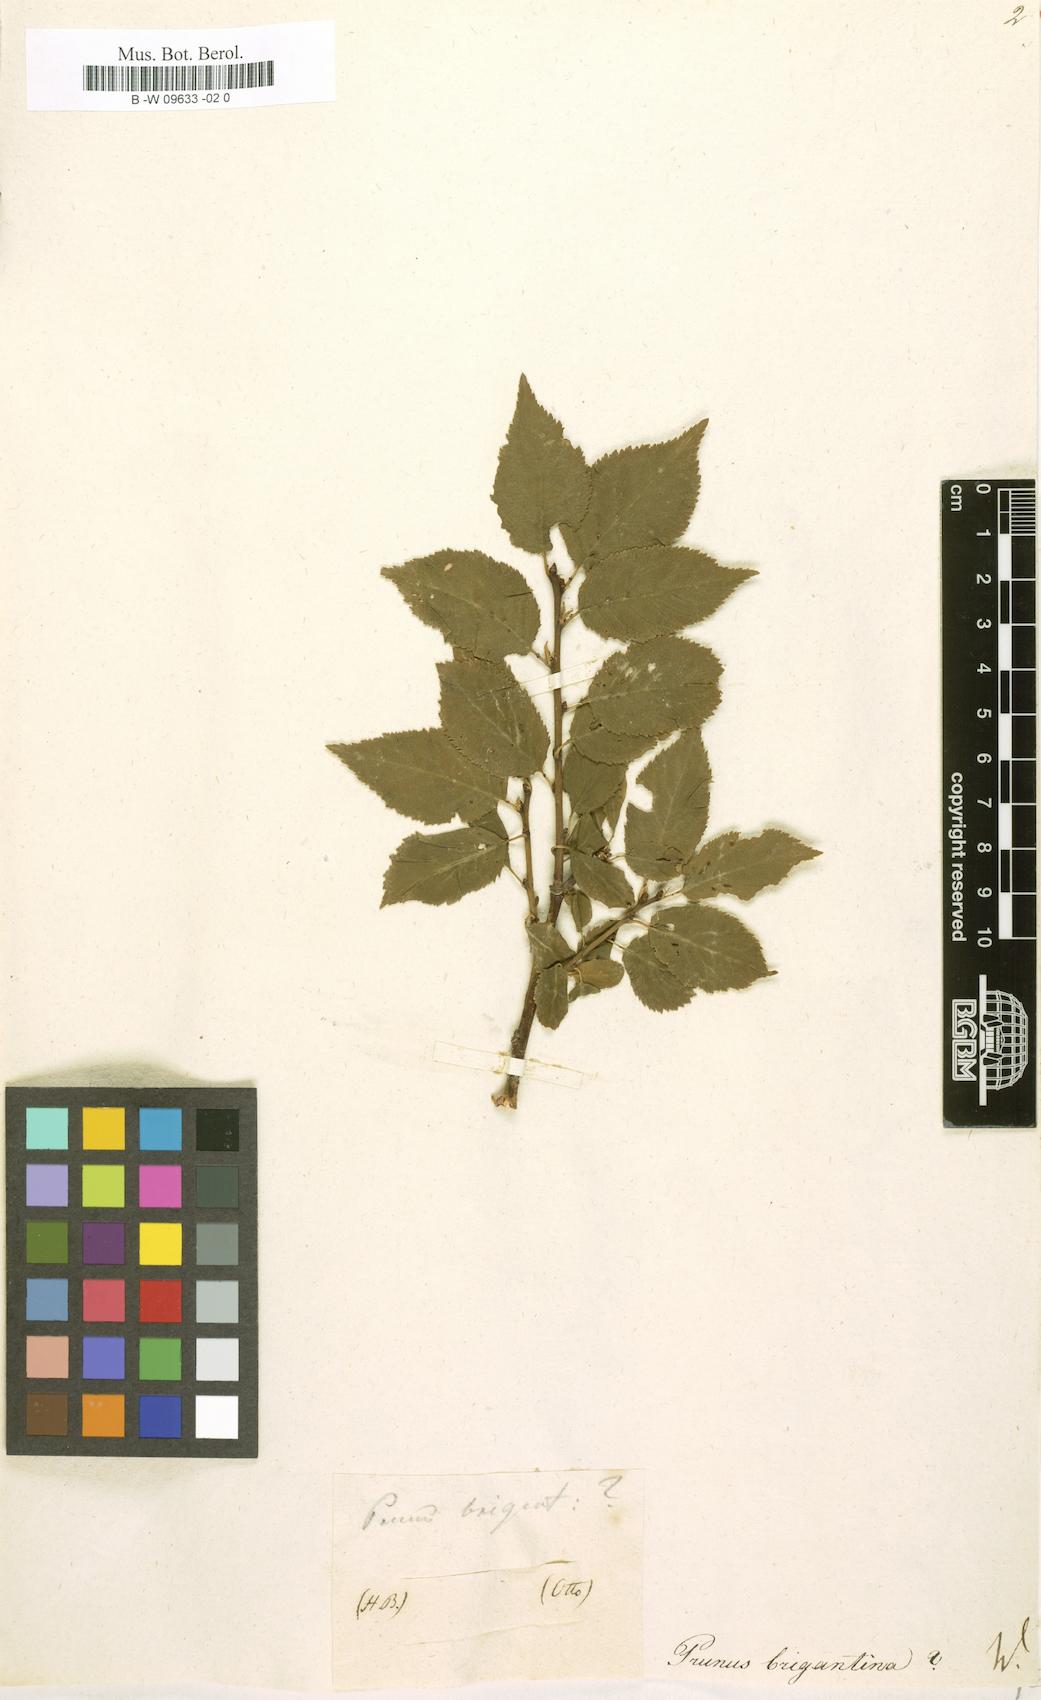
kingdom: Plantae
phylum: Tracheophyta
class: Magnoliopsida
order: Rosales
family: Rosaceae
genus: Prunus
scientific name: Prunus brigantina
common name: Briançon apricot
